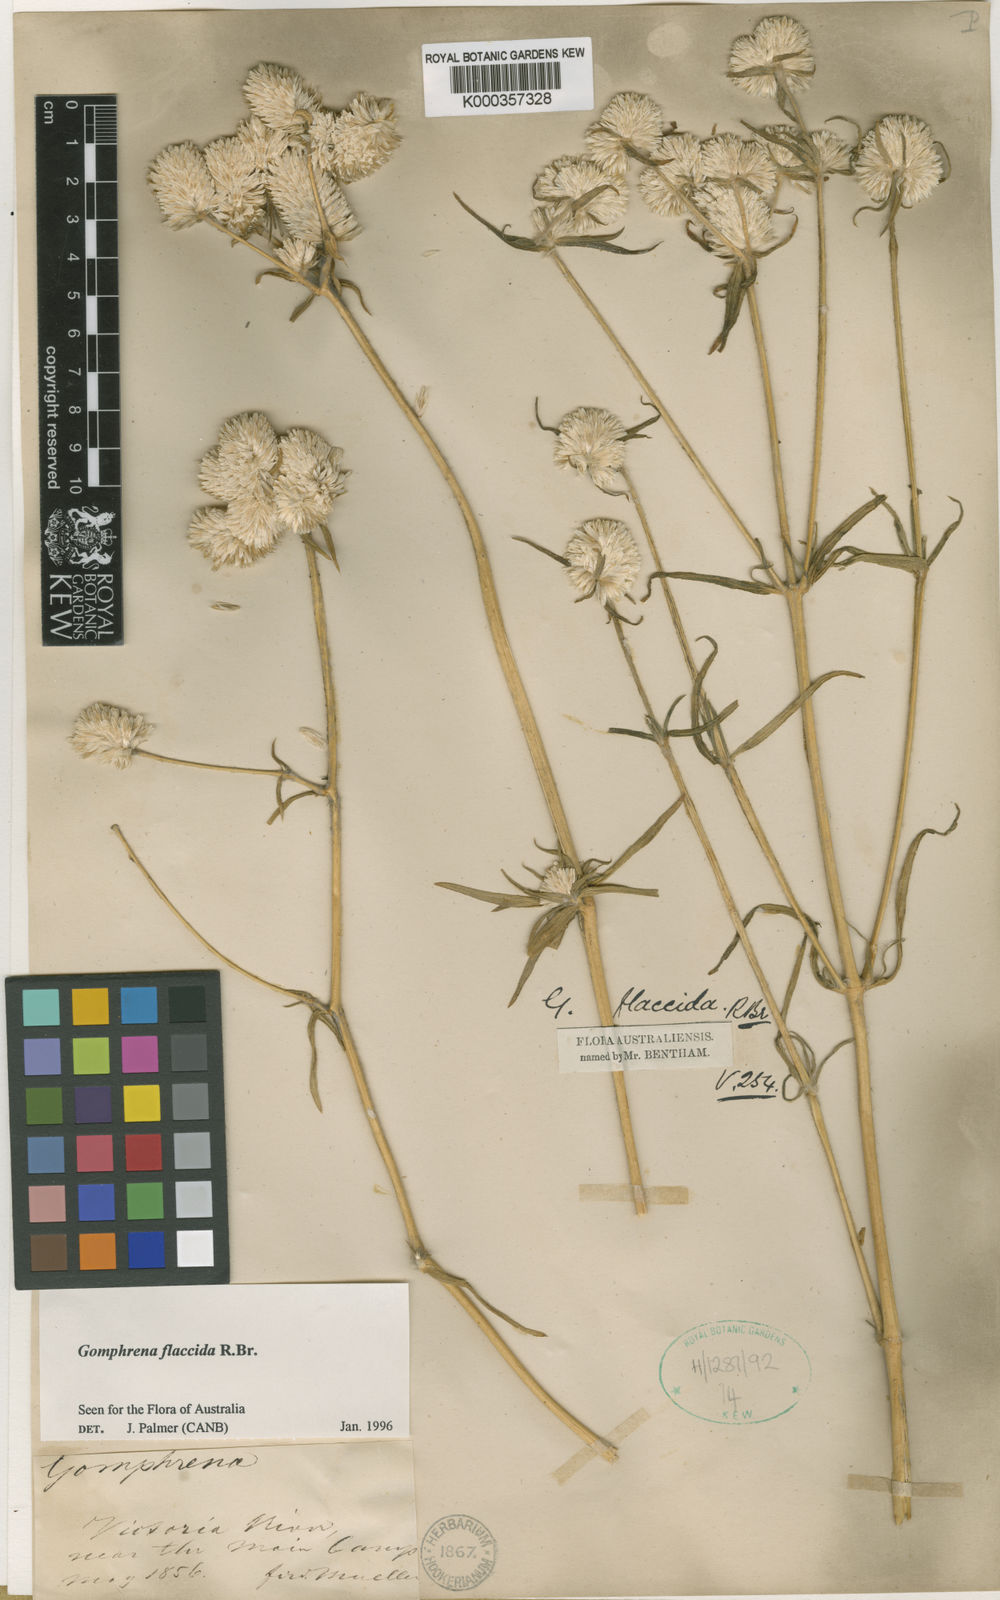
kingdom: Plantae
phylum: Tracheophyta
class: Magnoliopsida
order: Caryophyllales
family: Amaranthaceae
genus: Gomphrena
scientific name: Gomphrena flaccida
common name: Gomphrena-weed
